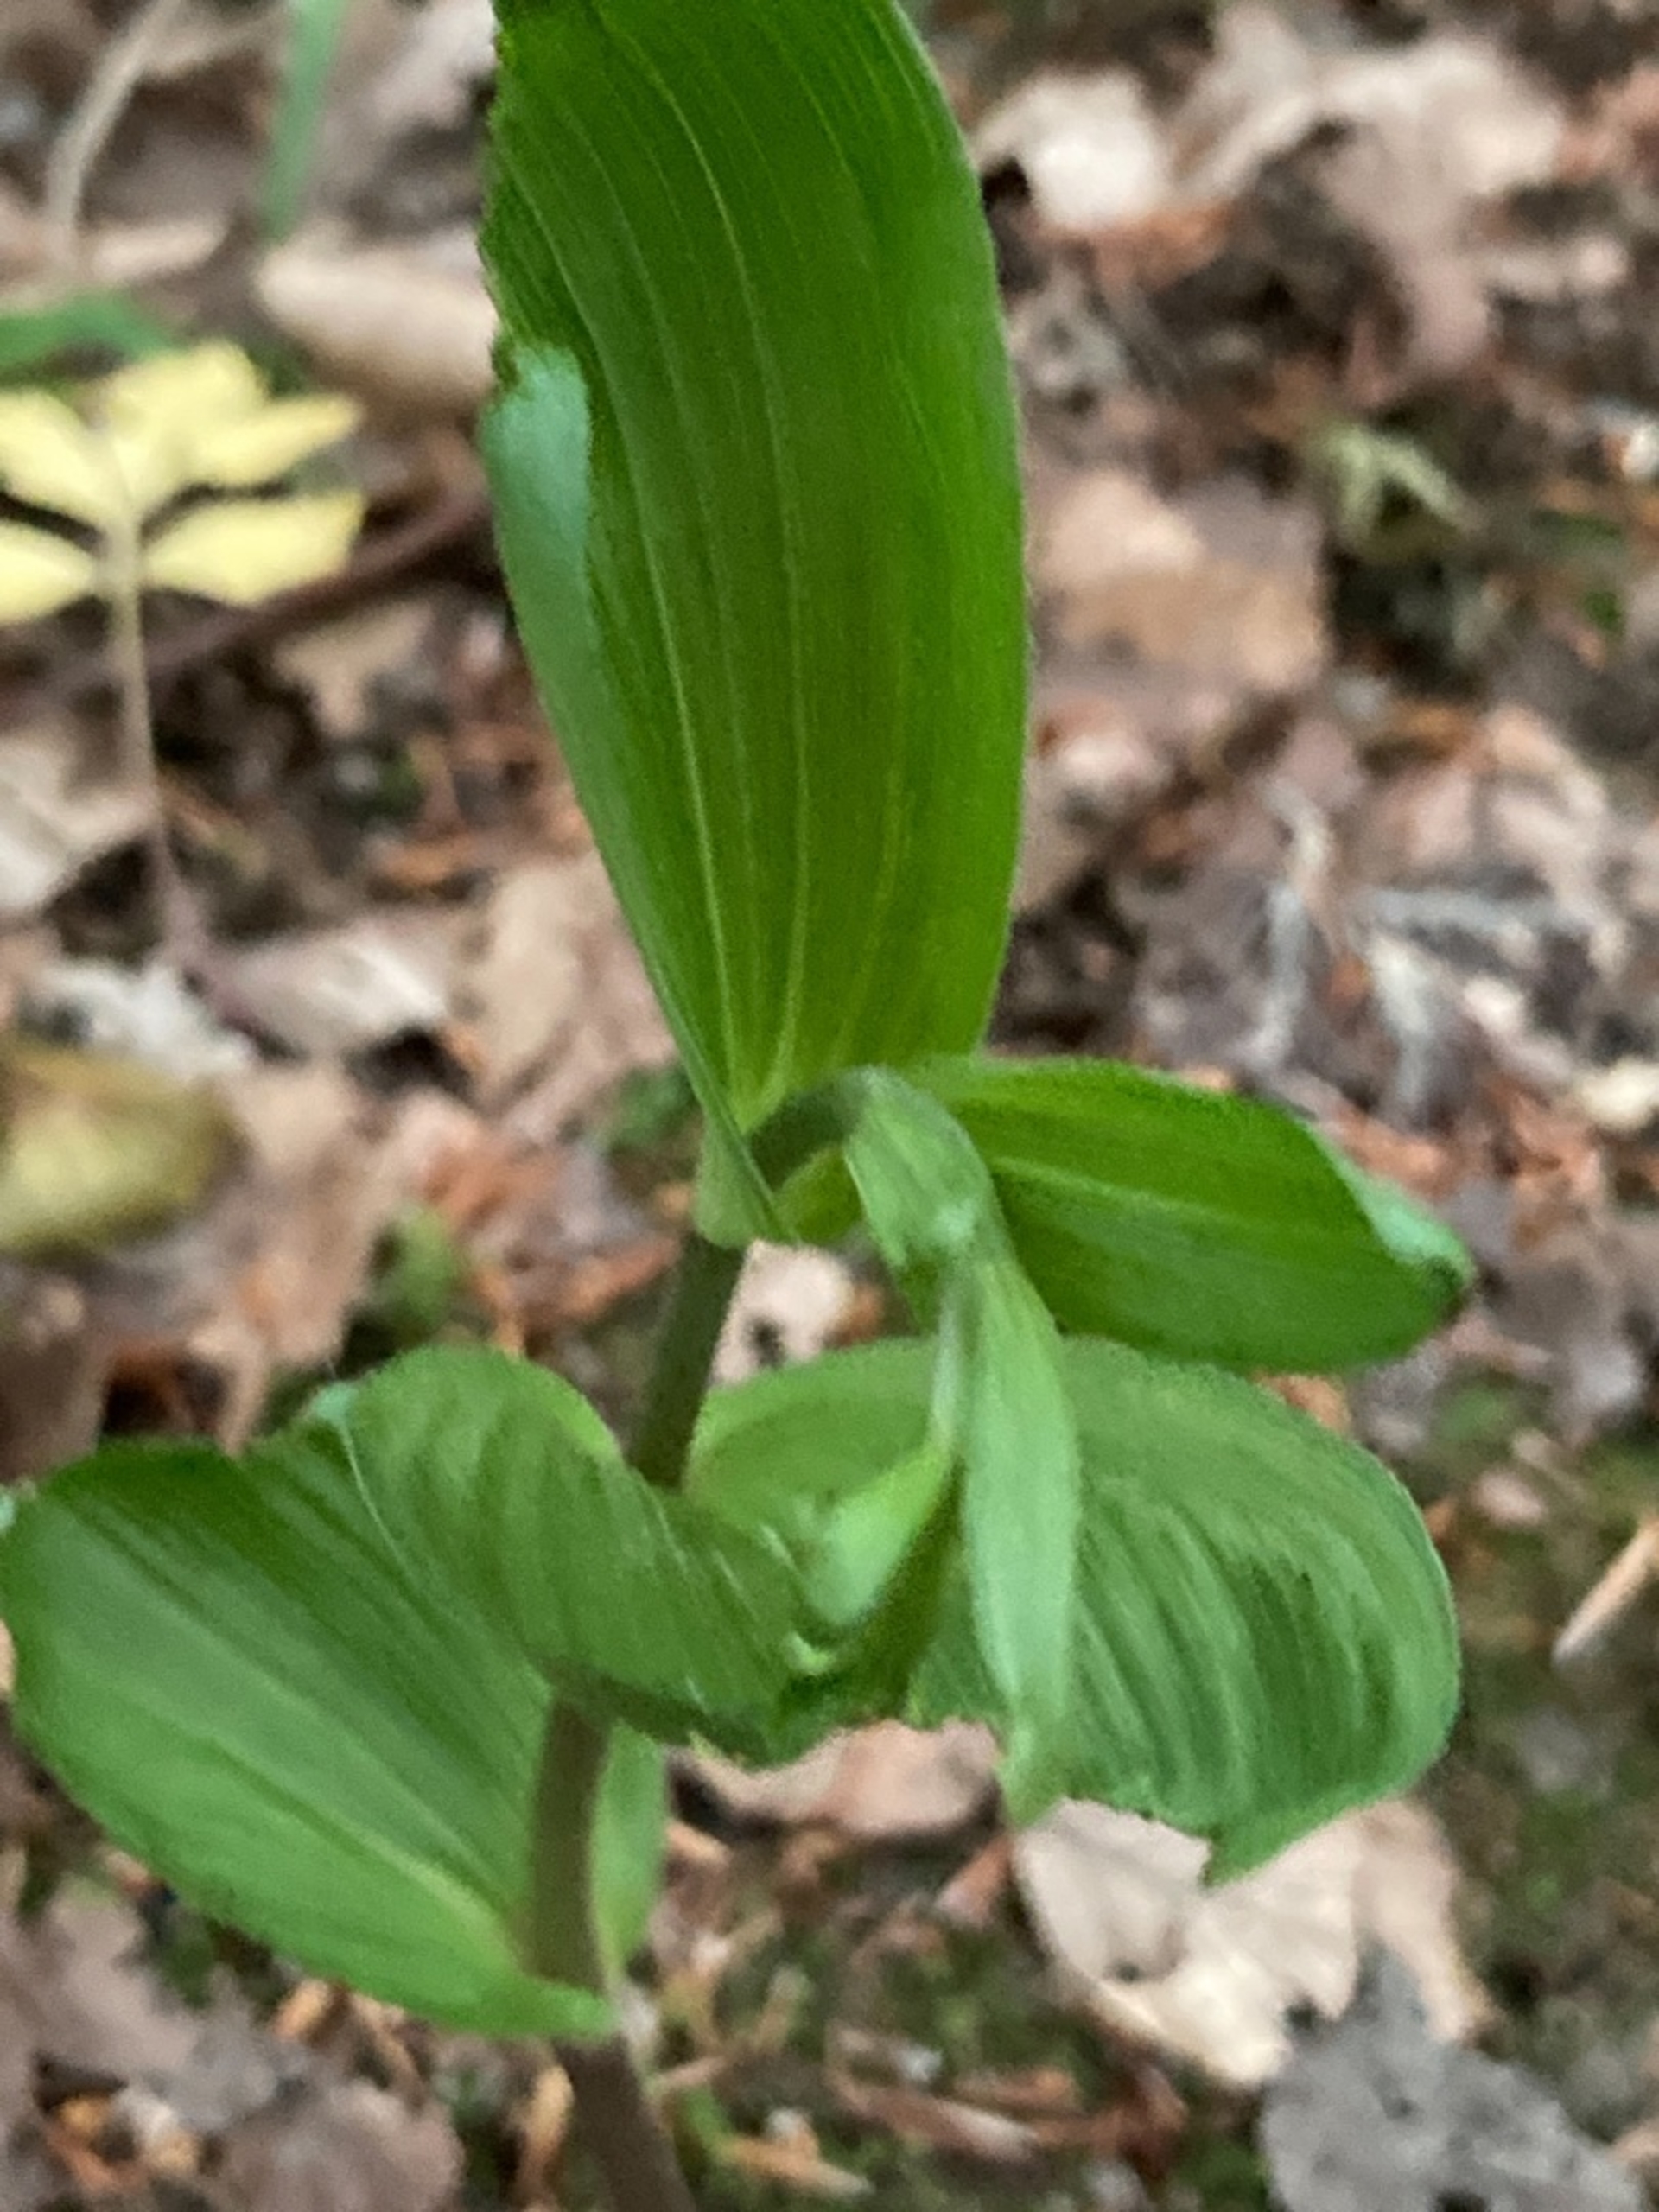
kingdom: Plantae
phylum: Tracheophyta
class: Liliopsida
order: Asparagales
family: Orchidaceae
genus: Epipactis
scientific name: Epipactis helleborine
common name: Skov-hullæbe
